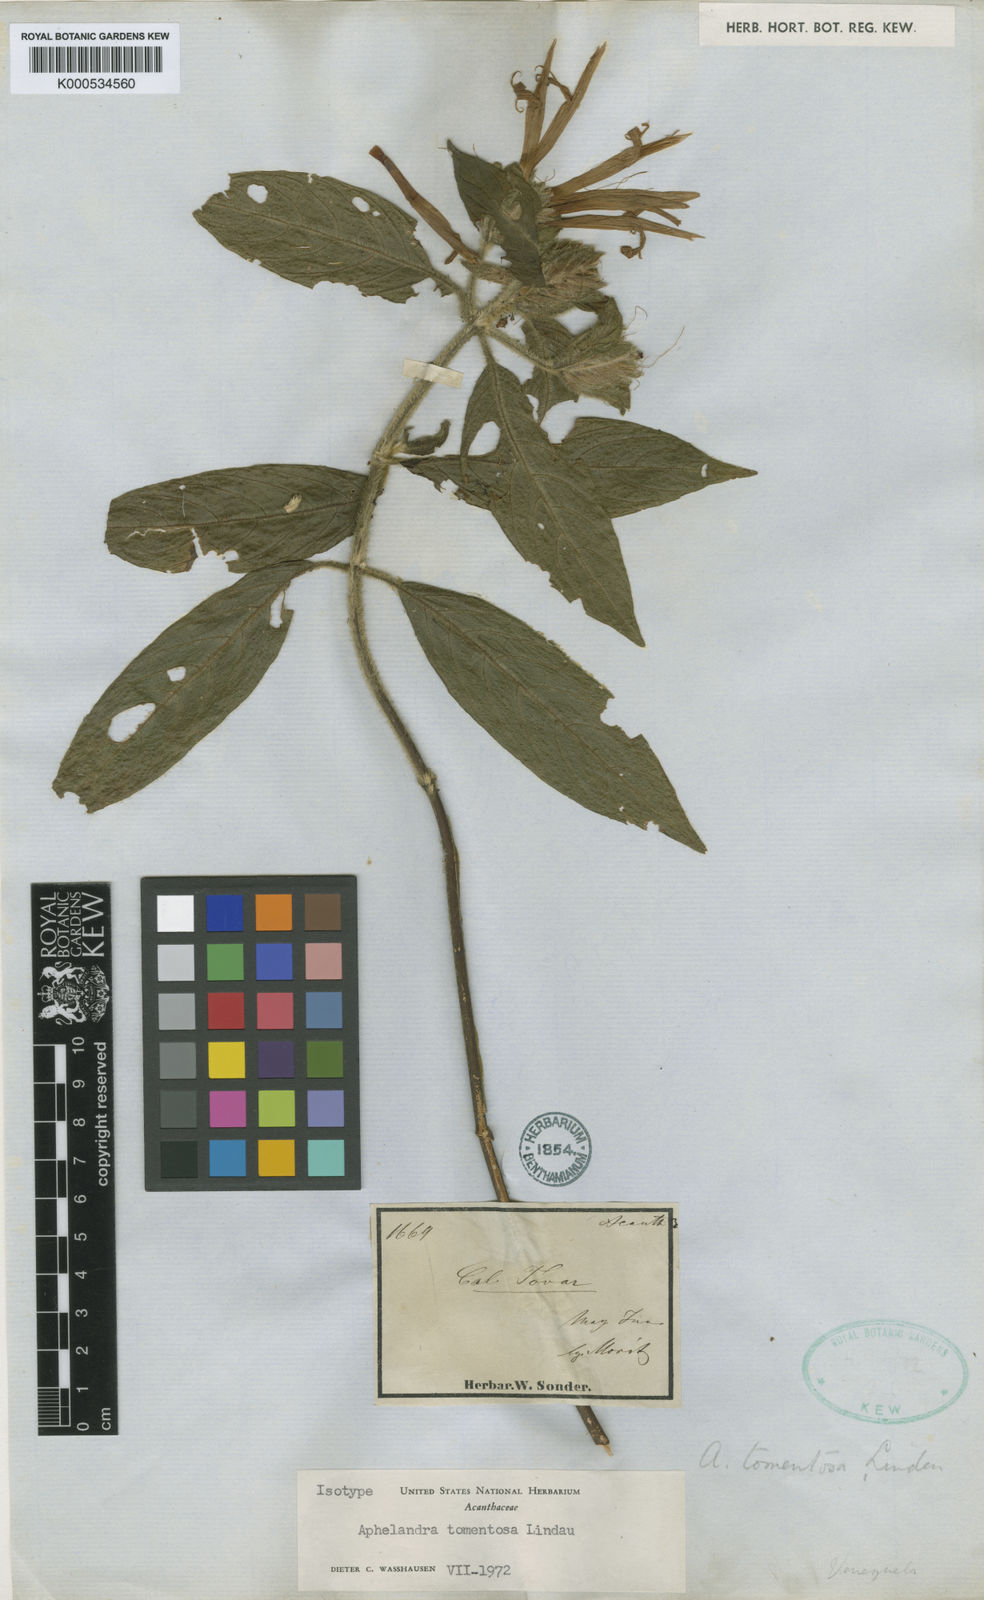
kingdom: Plantae
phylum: Tracheophyta
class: Magnoliopsida
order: Lamiales
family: Acanthaceae
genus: Aphelandra
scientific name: Aphelandra tomentosa
